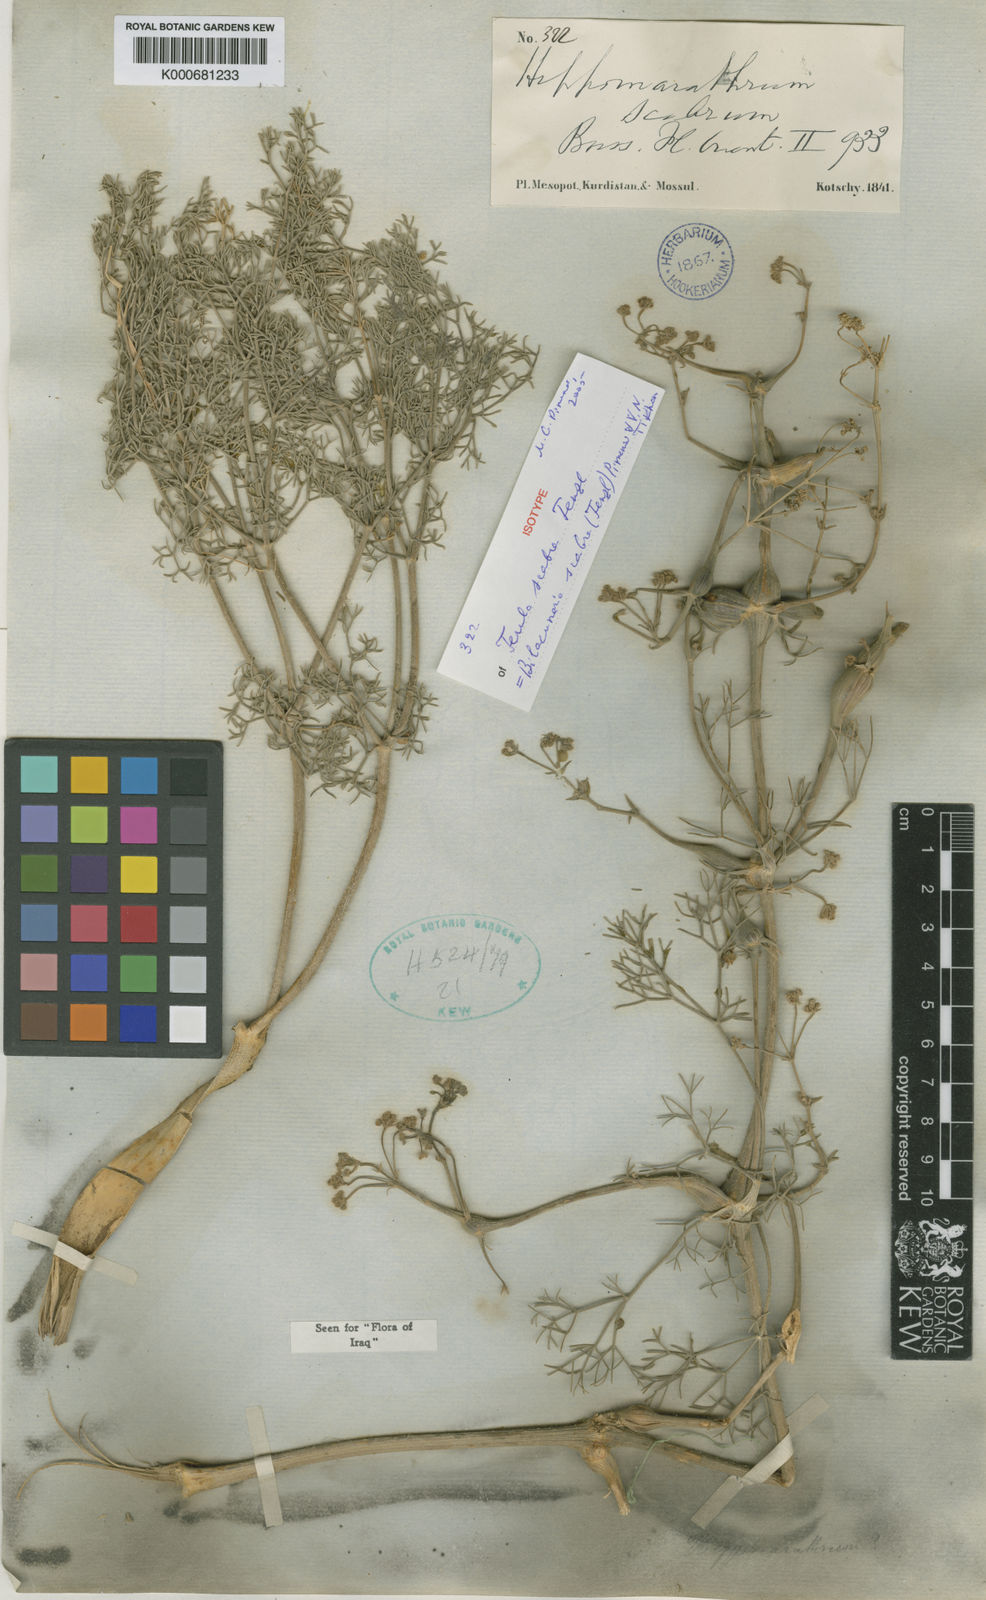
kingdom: Plantae
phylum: Tracheophyta
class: Magnoliopsida
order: Apiales
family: Apiaceae
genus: Bilacunaria
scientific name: Bilacunaria scabra
